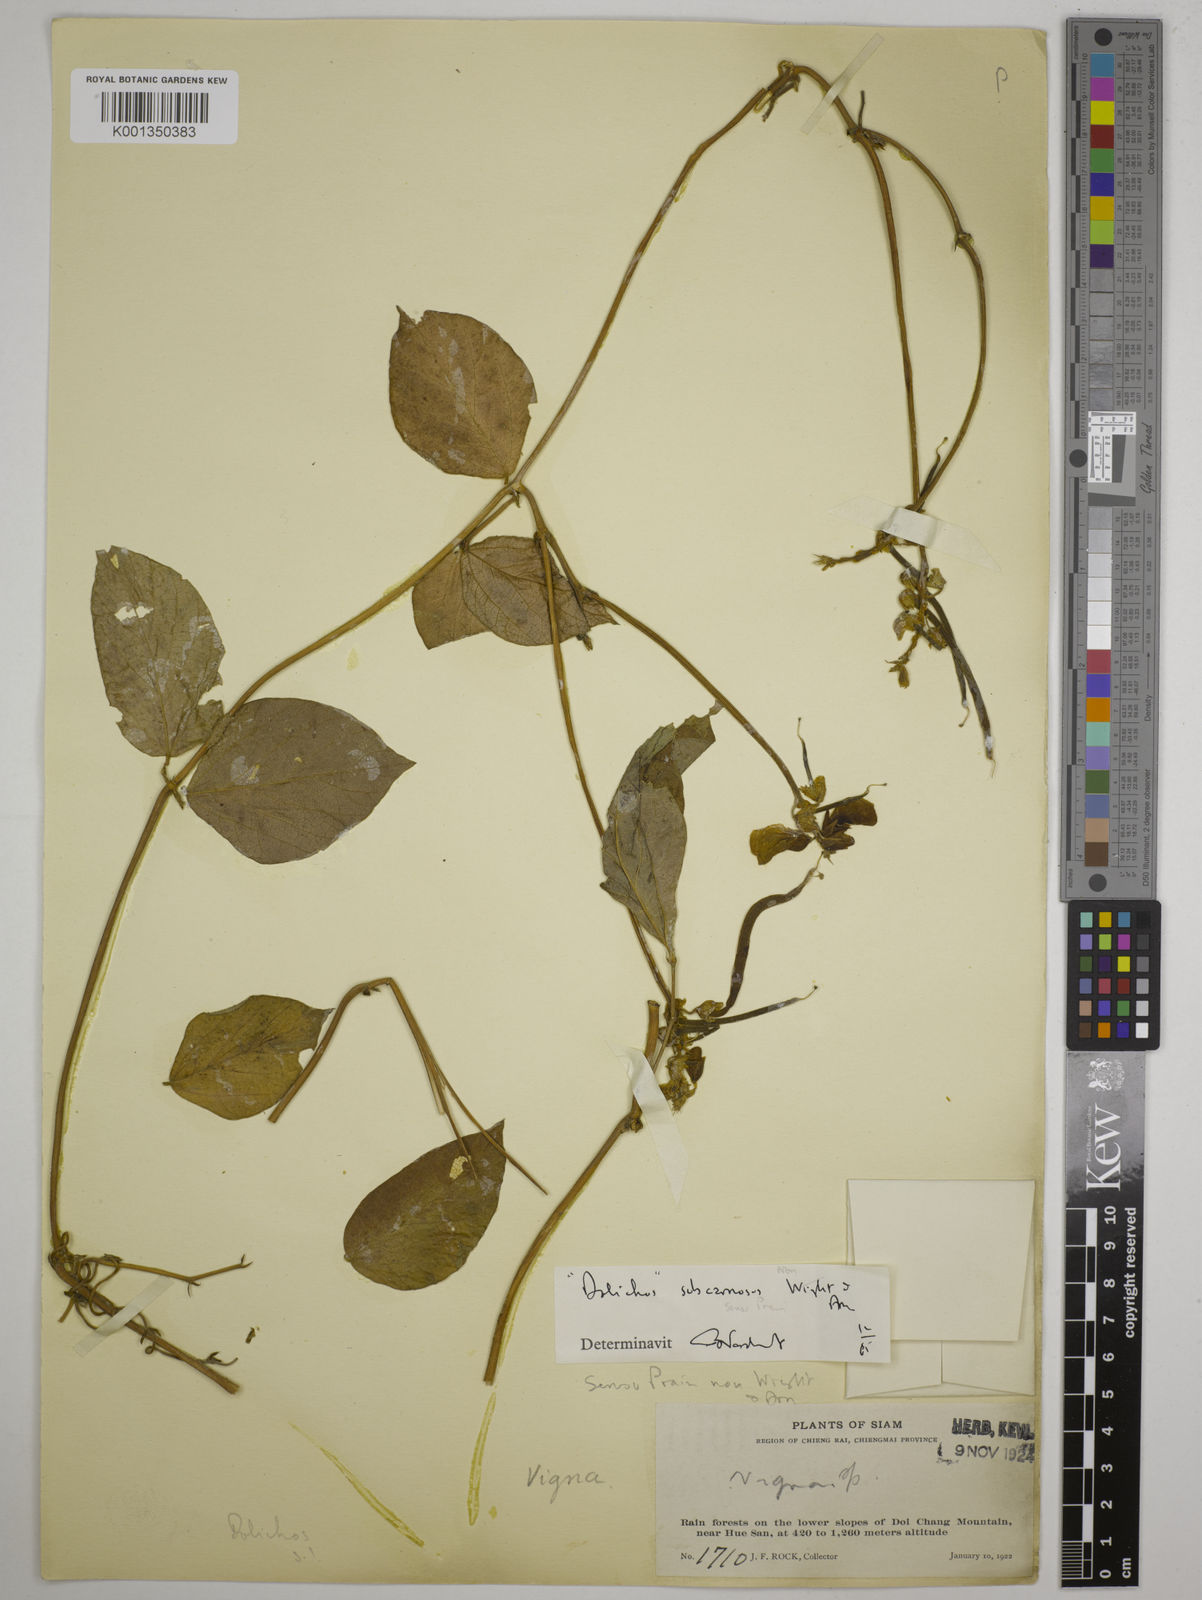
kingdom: Plantae
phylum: Tracheophyta
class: Magnoliopsida
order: Fabales
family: Fabaceae
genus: Dolichos
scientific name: Dolichos junghuhnianus
